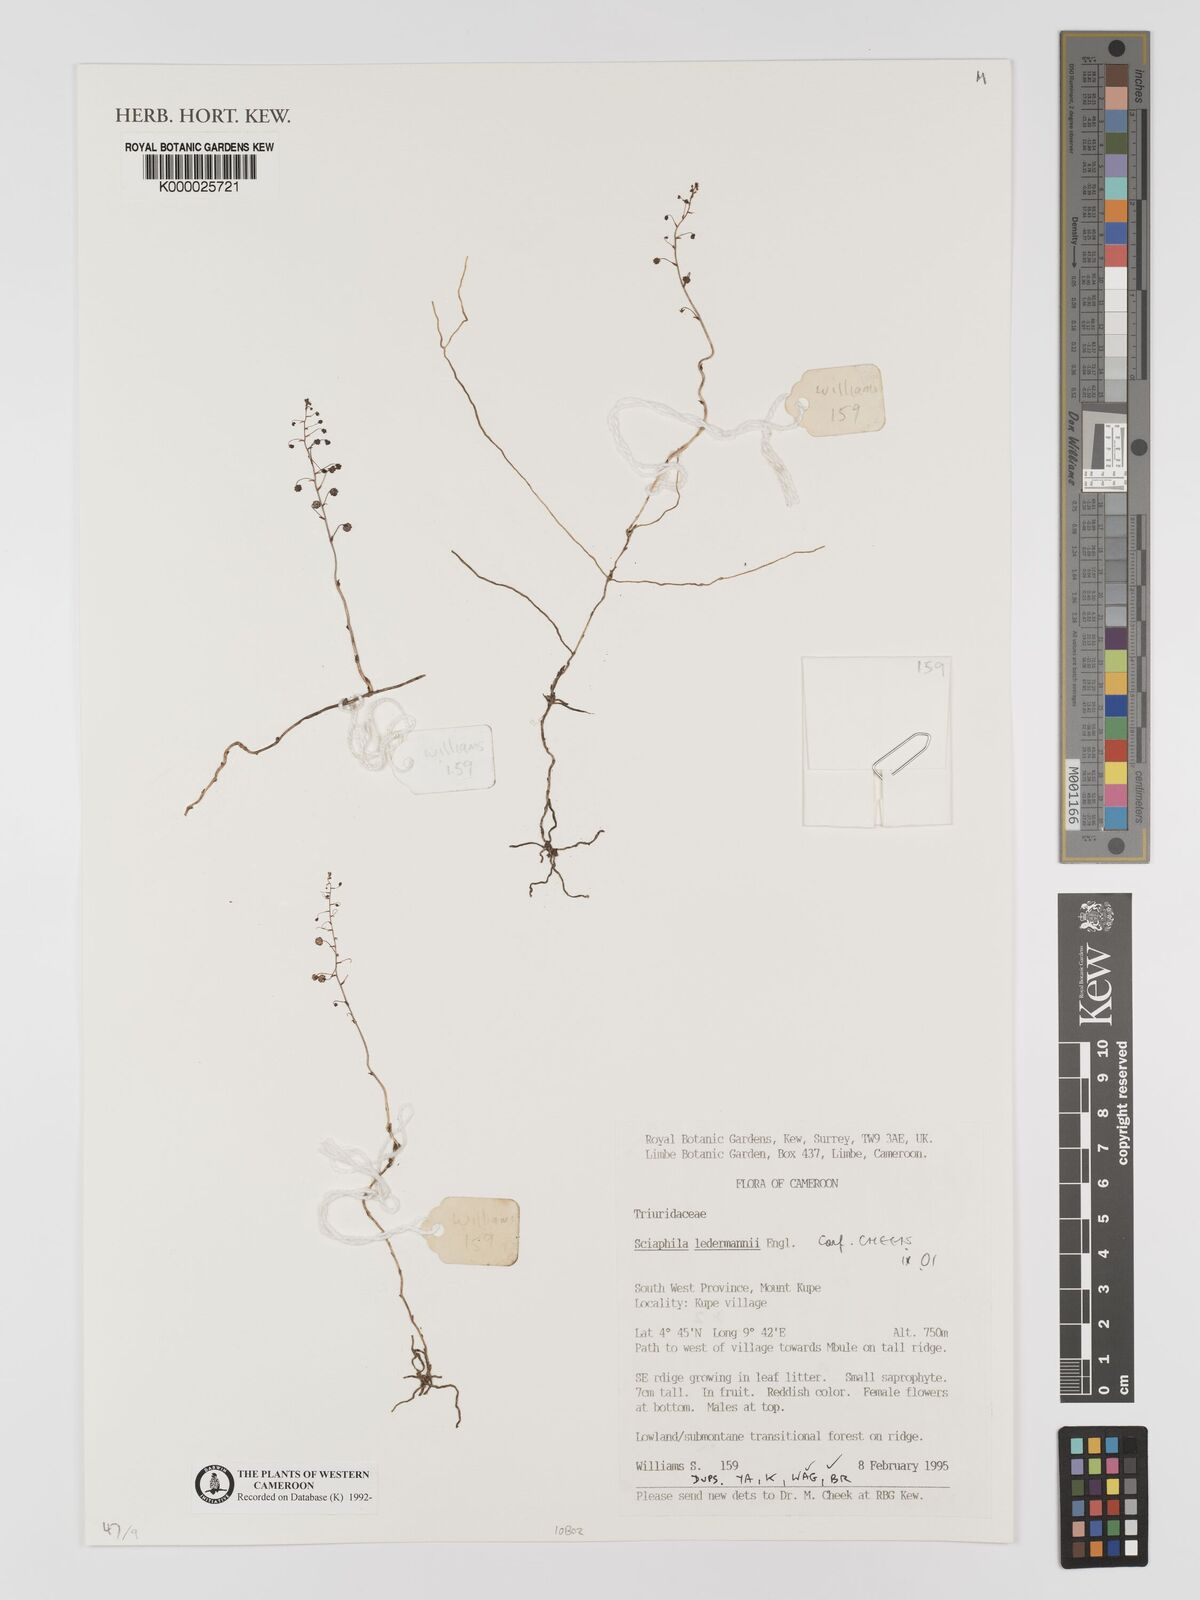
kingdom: Plantae
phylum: Tracheophyta
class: Liliopsida
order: Pandanales
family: Triuridaceae
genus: Sciaphila
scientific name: Sciaphila ledermannii
